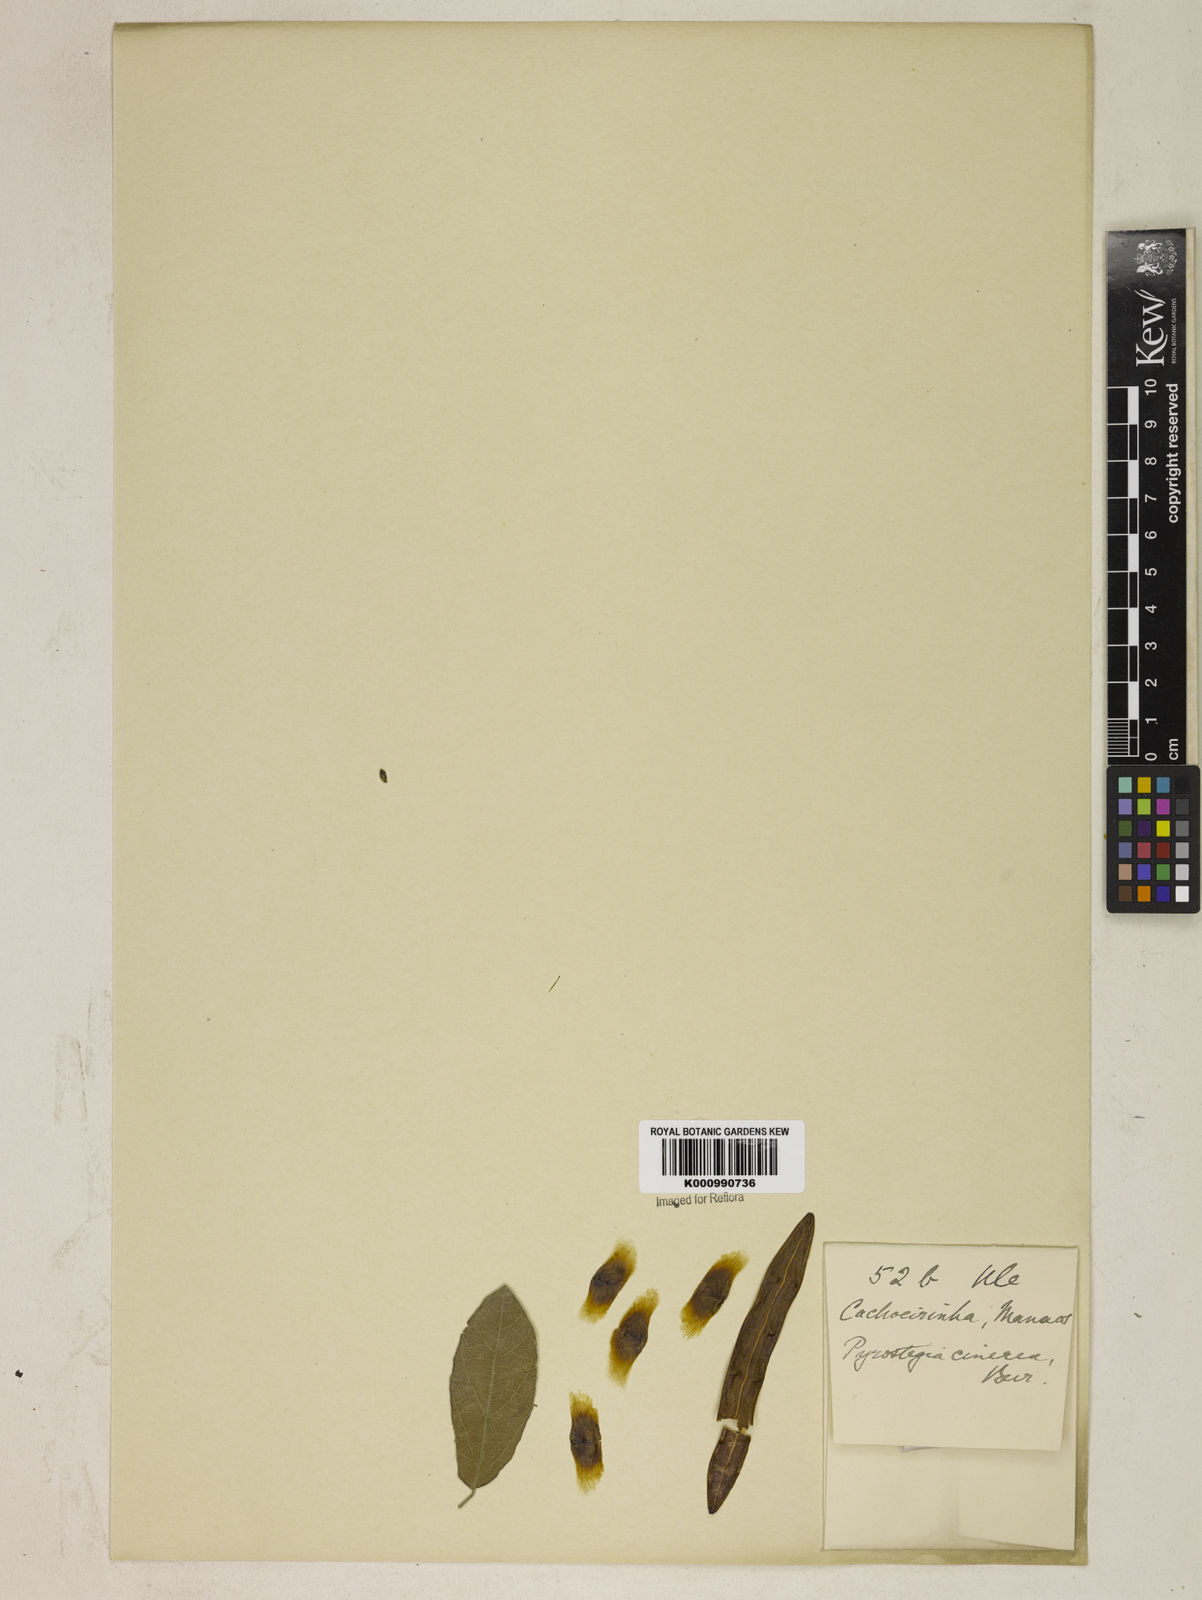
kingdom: Plantae
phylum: Tracheophyta
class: Magnoliopsida
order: Lamiales
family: Bignoniaceae
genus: Pyrostegia
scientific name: Pyrostegia
